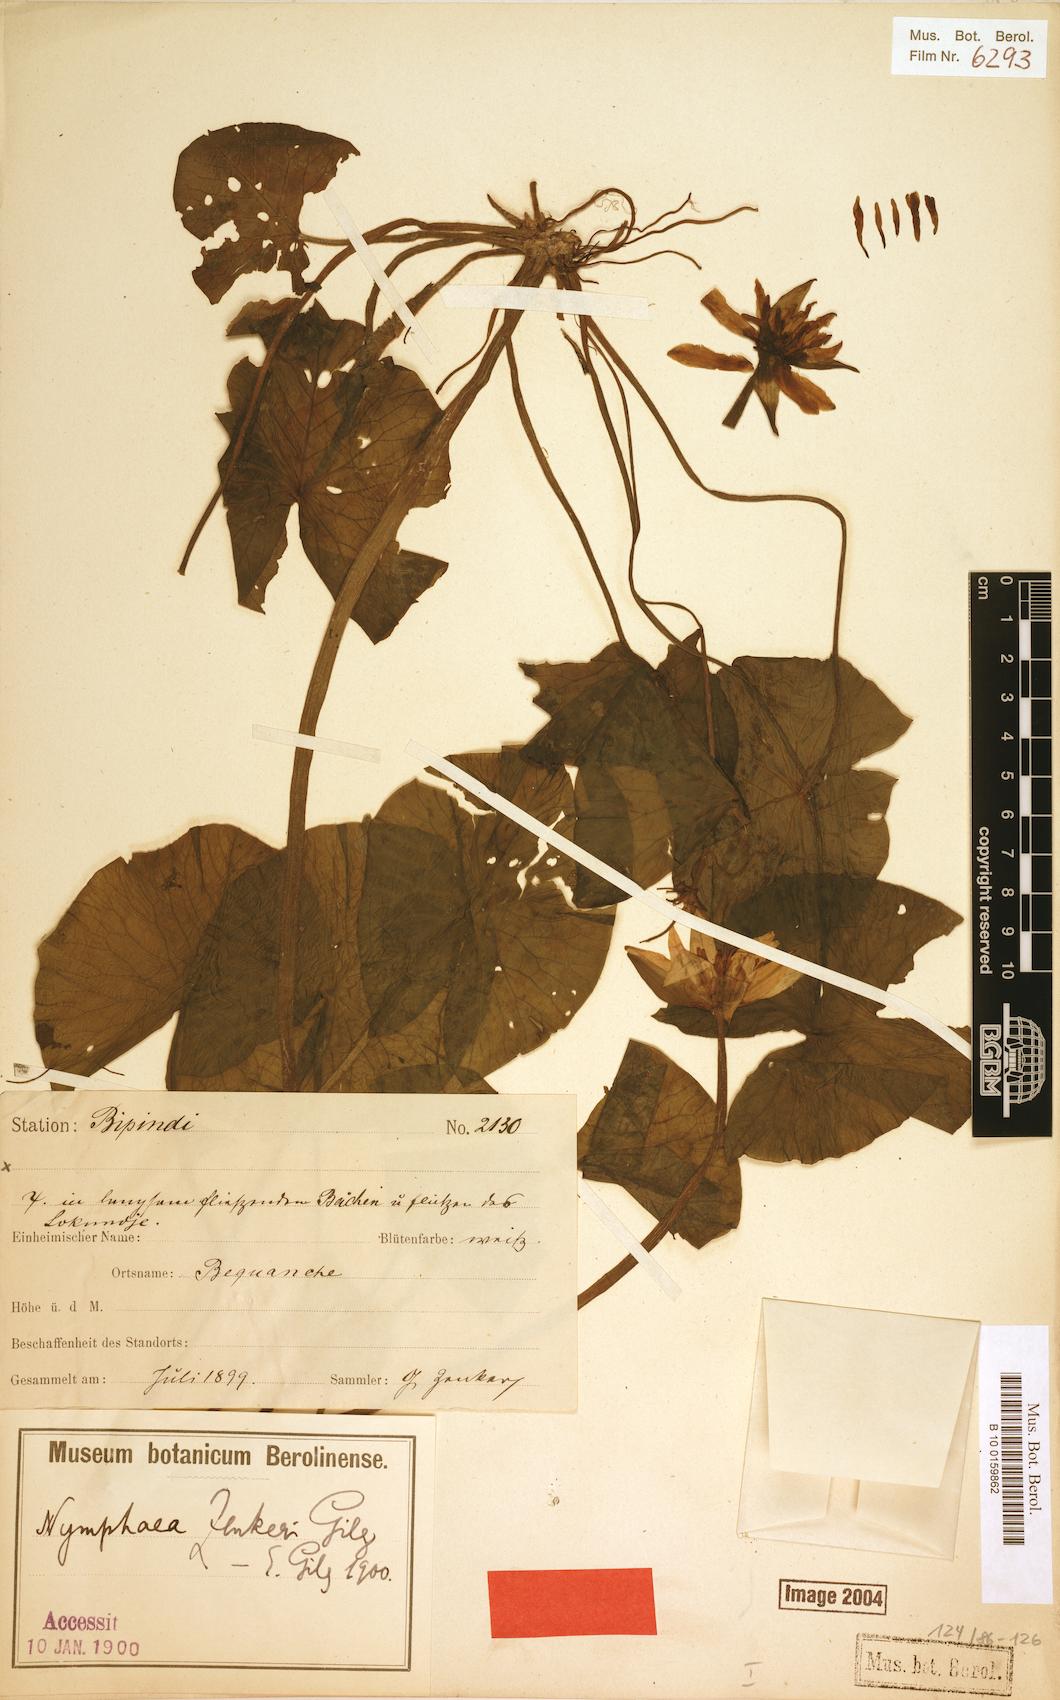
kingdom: Plantae
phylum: Tracheophyta
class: Magnoliopsida
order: Nymphaeales
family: Nymphaeaceae
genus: Nymphaea
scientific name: Nymphaea lotus
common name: White egyptian lotus
